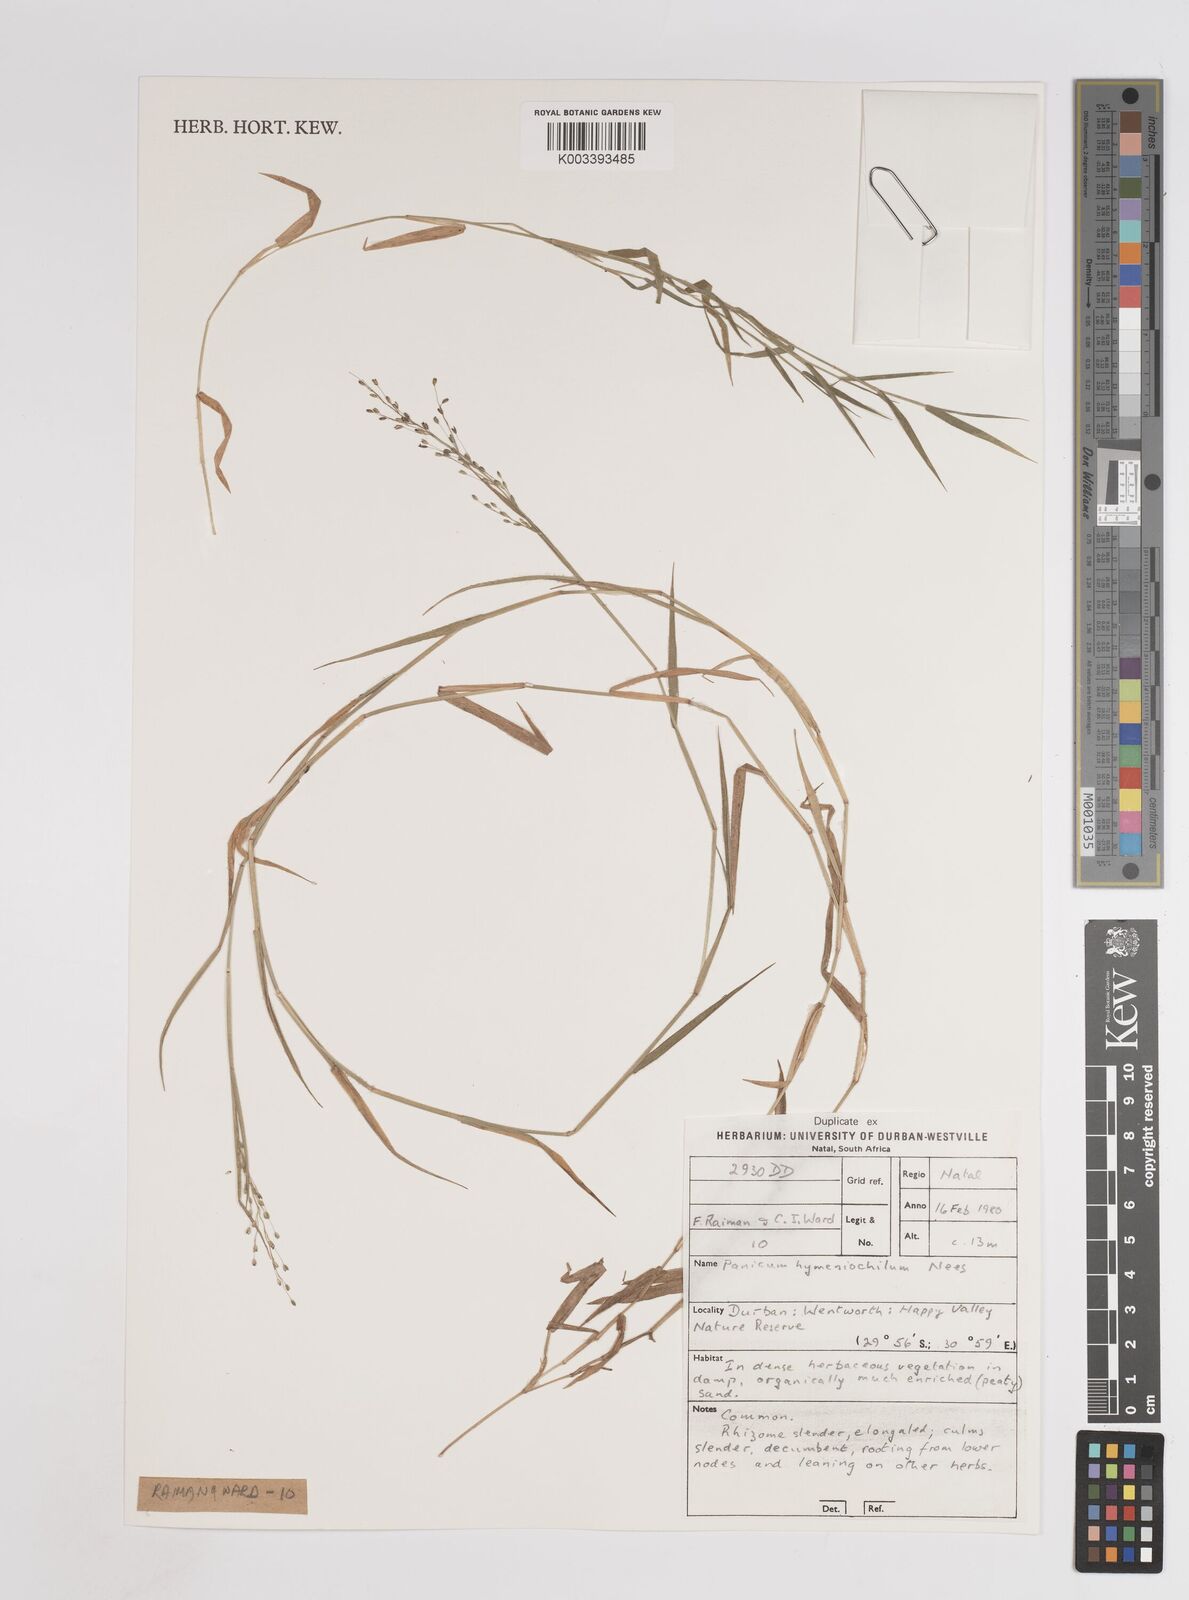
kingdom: Plantae
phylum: Tracheophyta
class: Liliopsida
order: Poales
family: Poaceae
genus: Adenochloa
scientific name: Adenochloa hymeniochila
